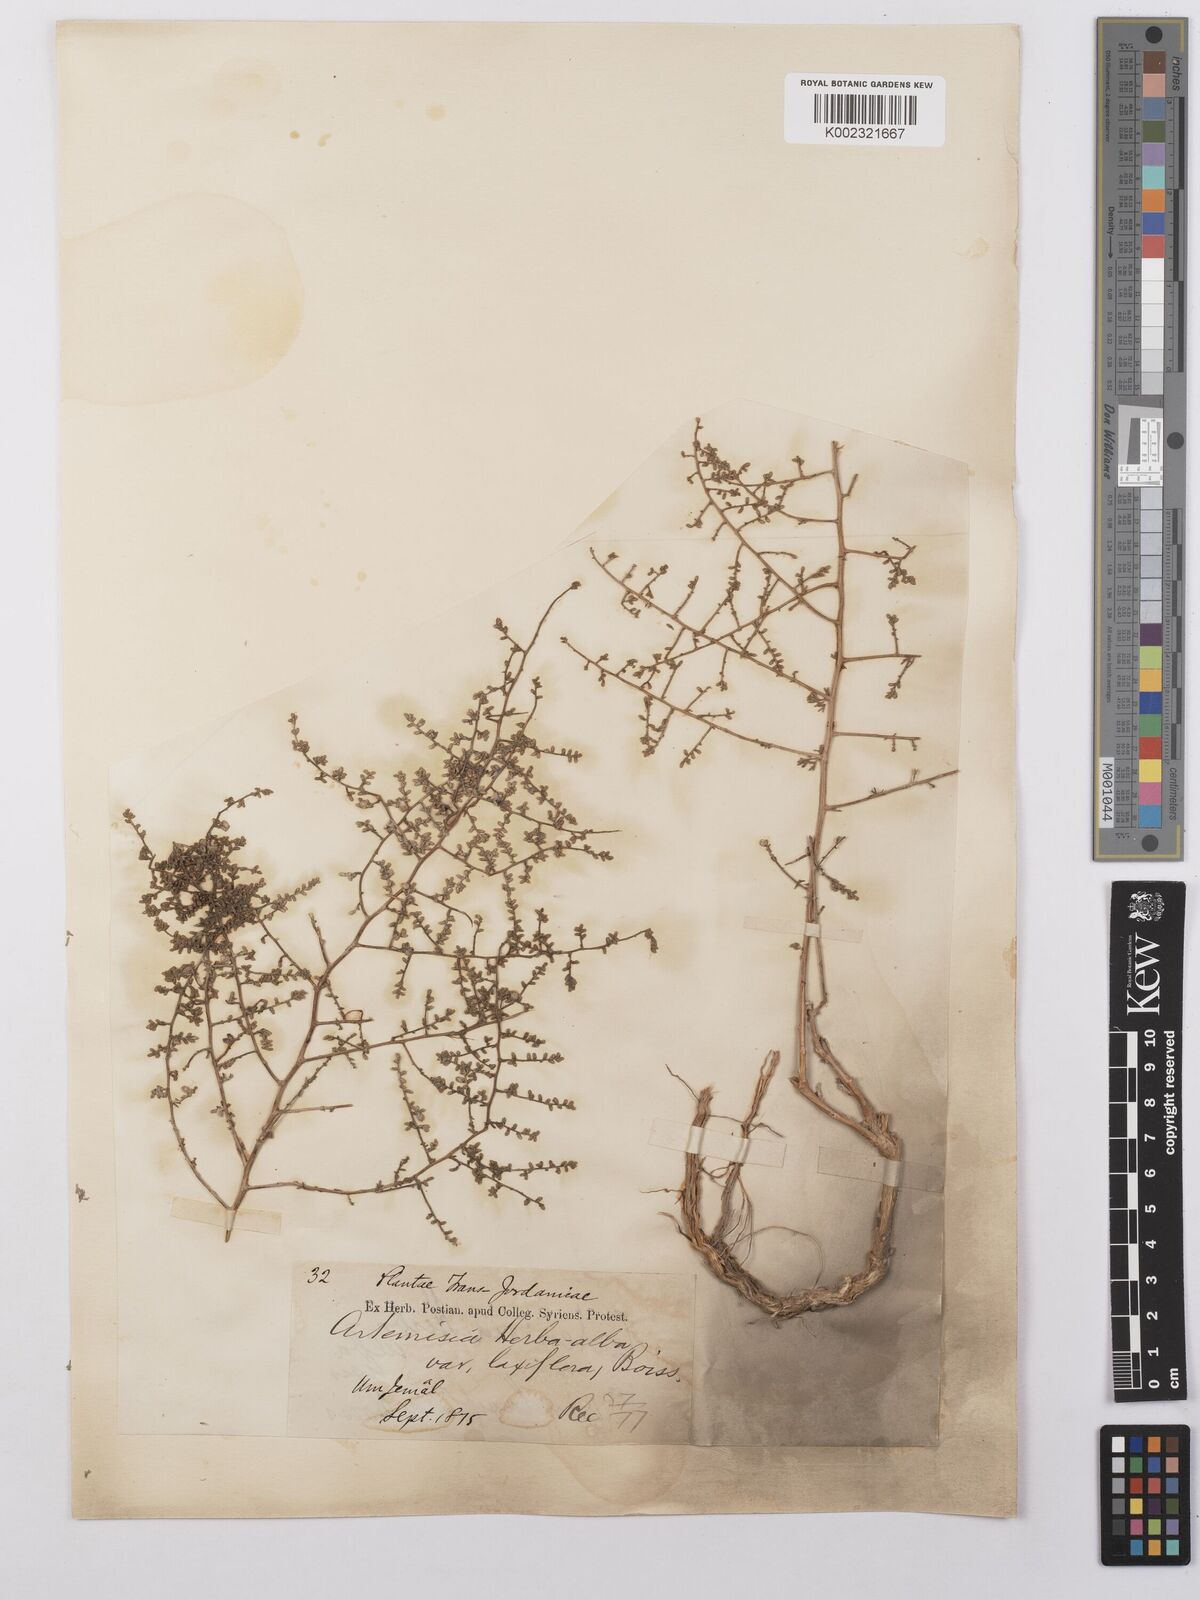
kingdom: Plantae
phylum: Tracheophyta
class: Magnoliopsida
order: Asterales
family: Asteraceae
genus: Artemisia
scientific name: Artemisia herba-alba
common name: White wormwood
